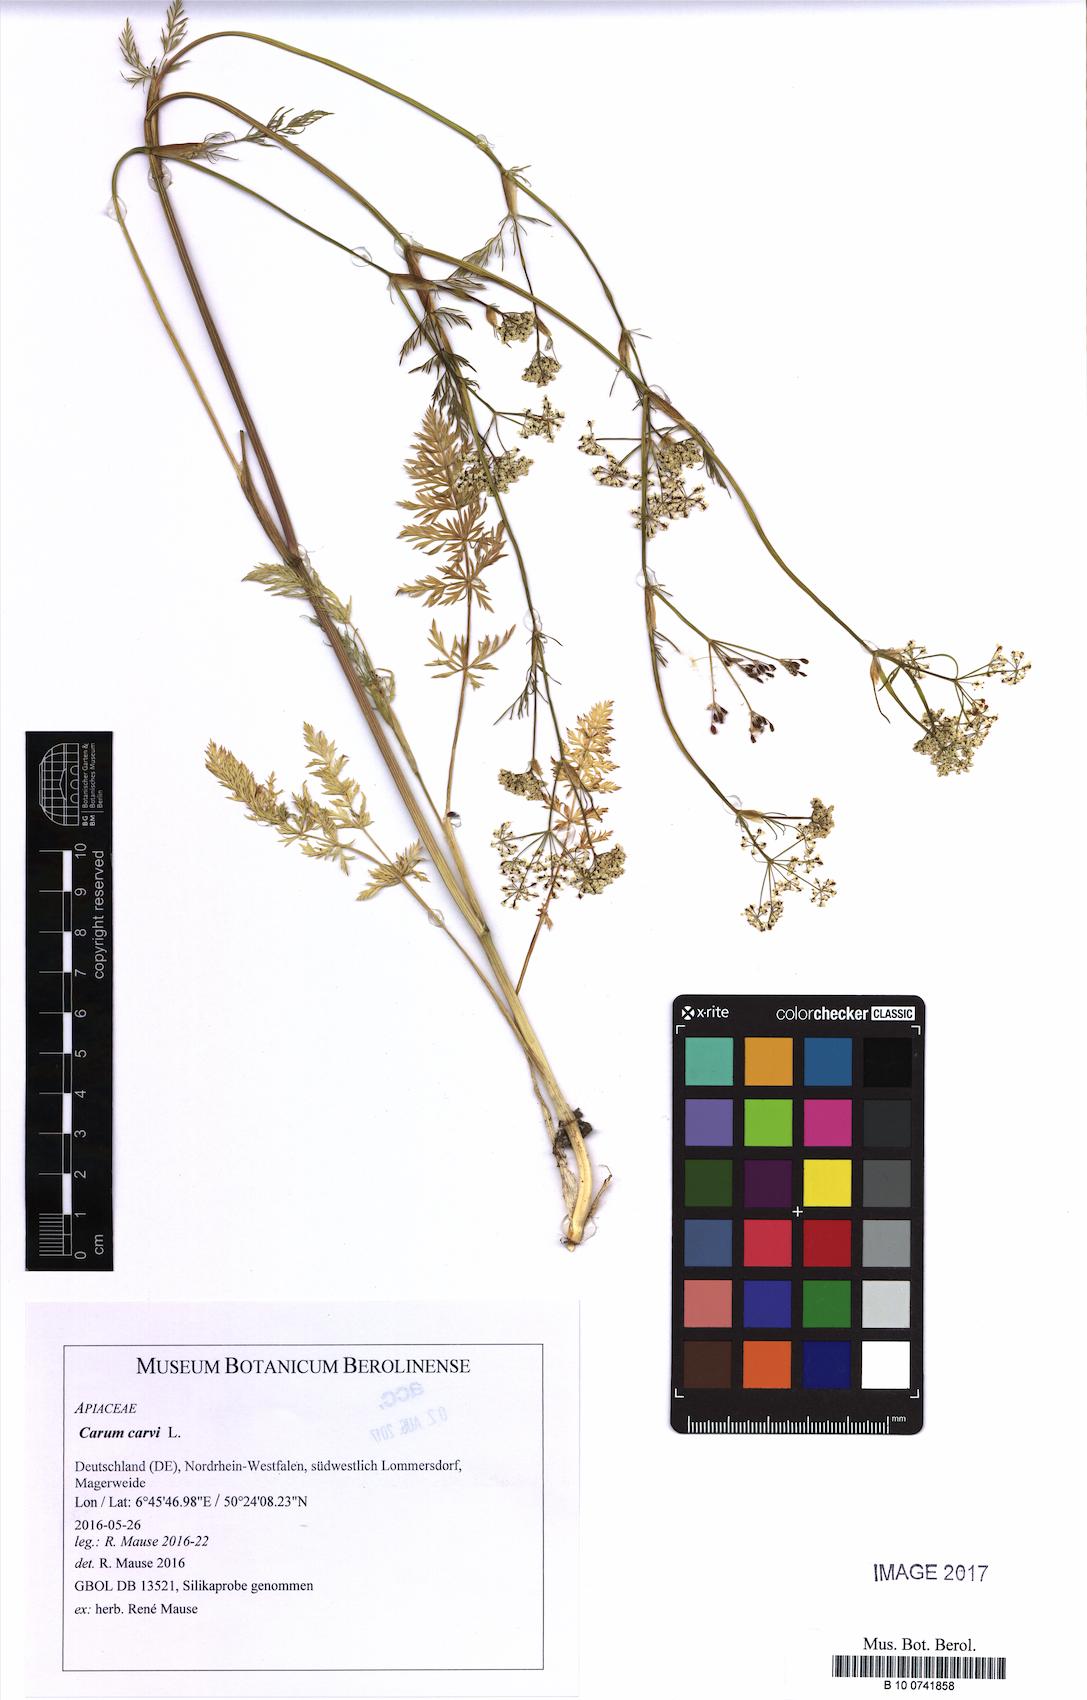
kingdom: Plantae
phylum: Tracheophyta
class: Magnoliopsida
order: Apiales
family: Apiaceae
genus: Carum
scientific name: Carum carvi
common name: Caraway
